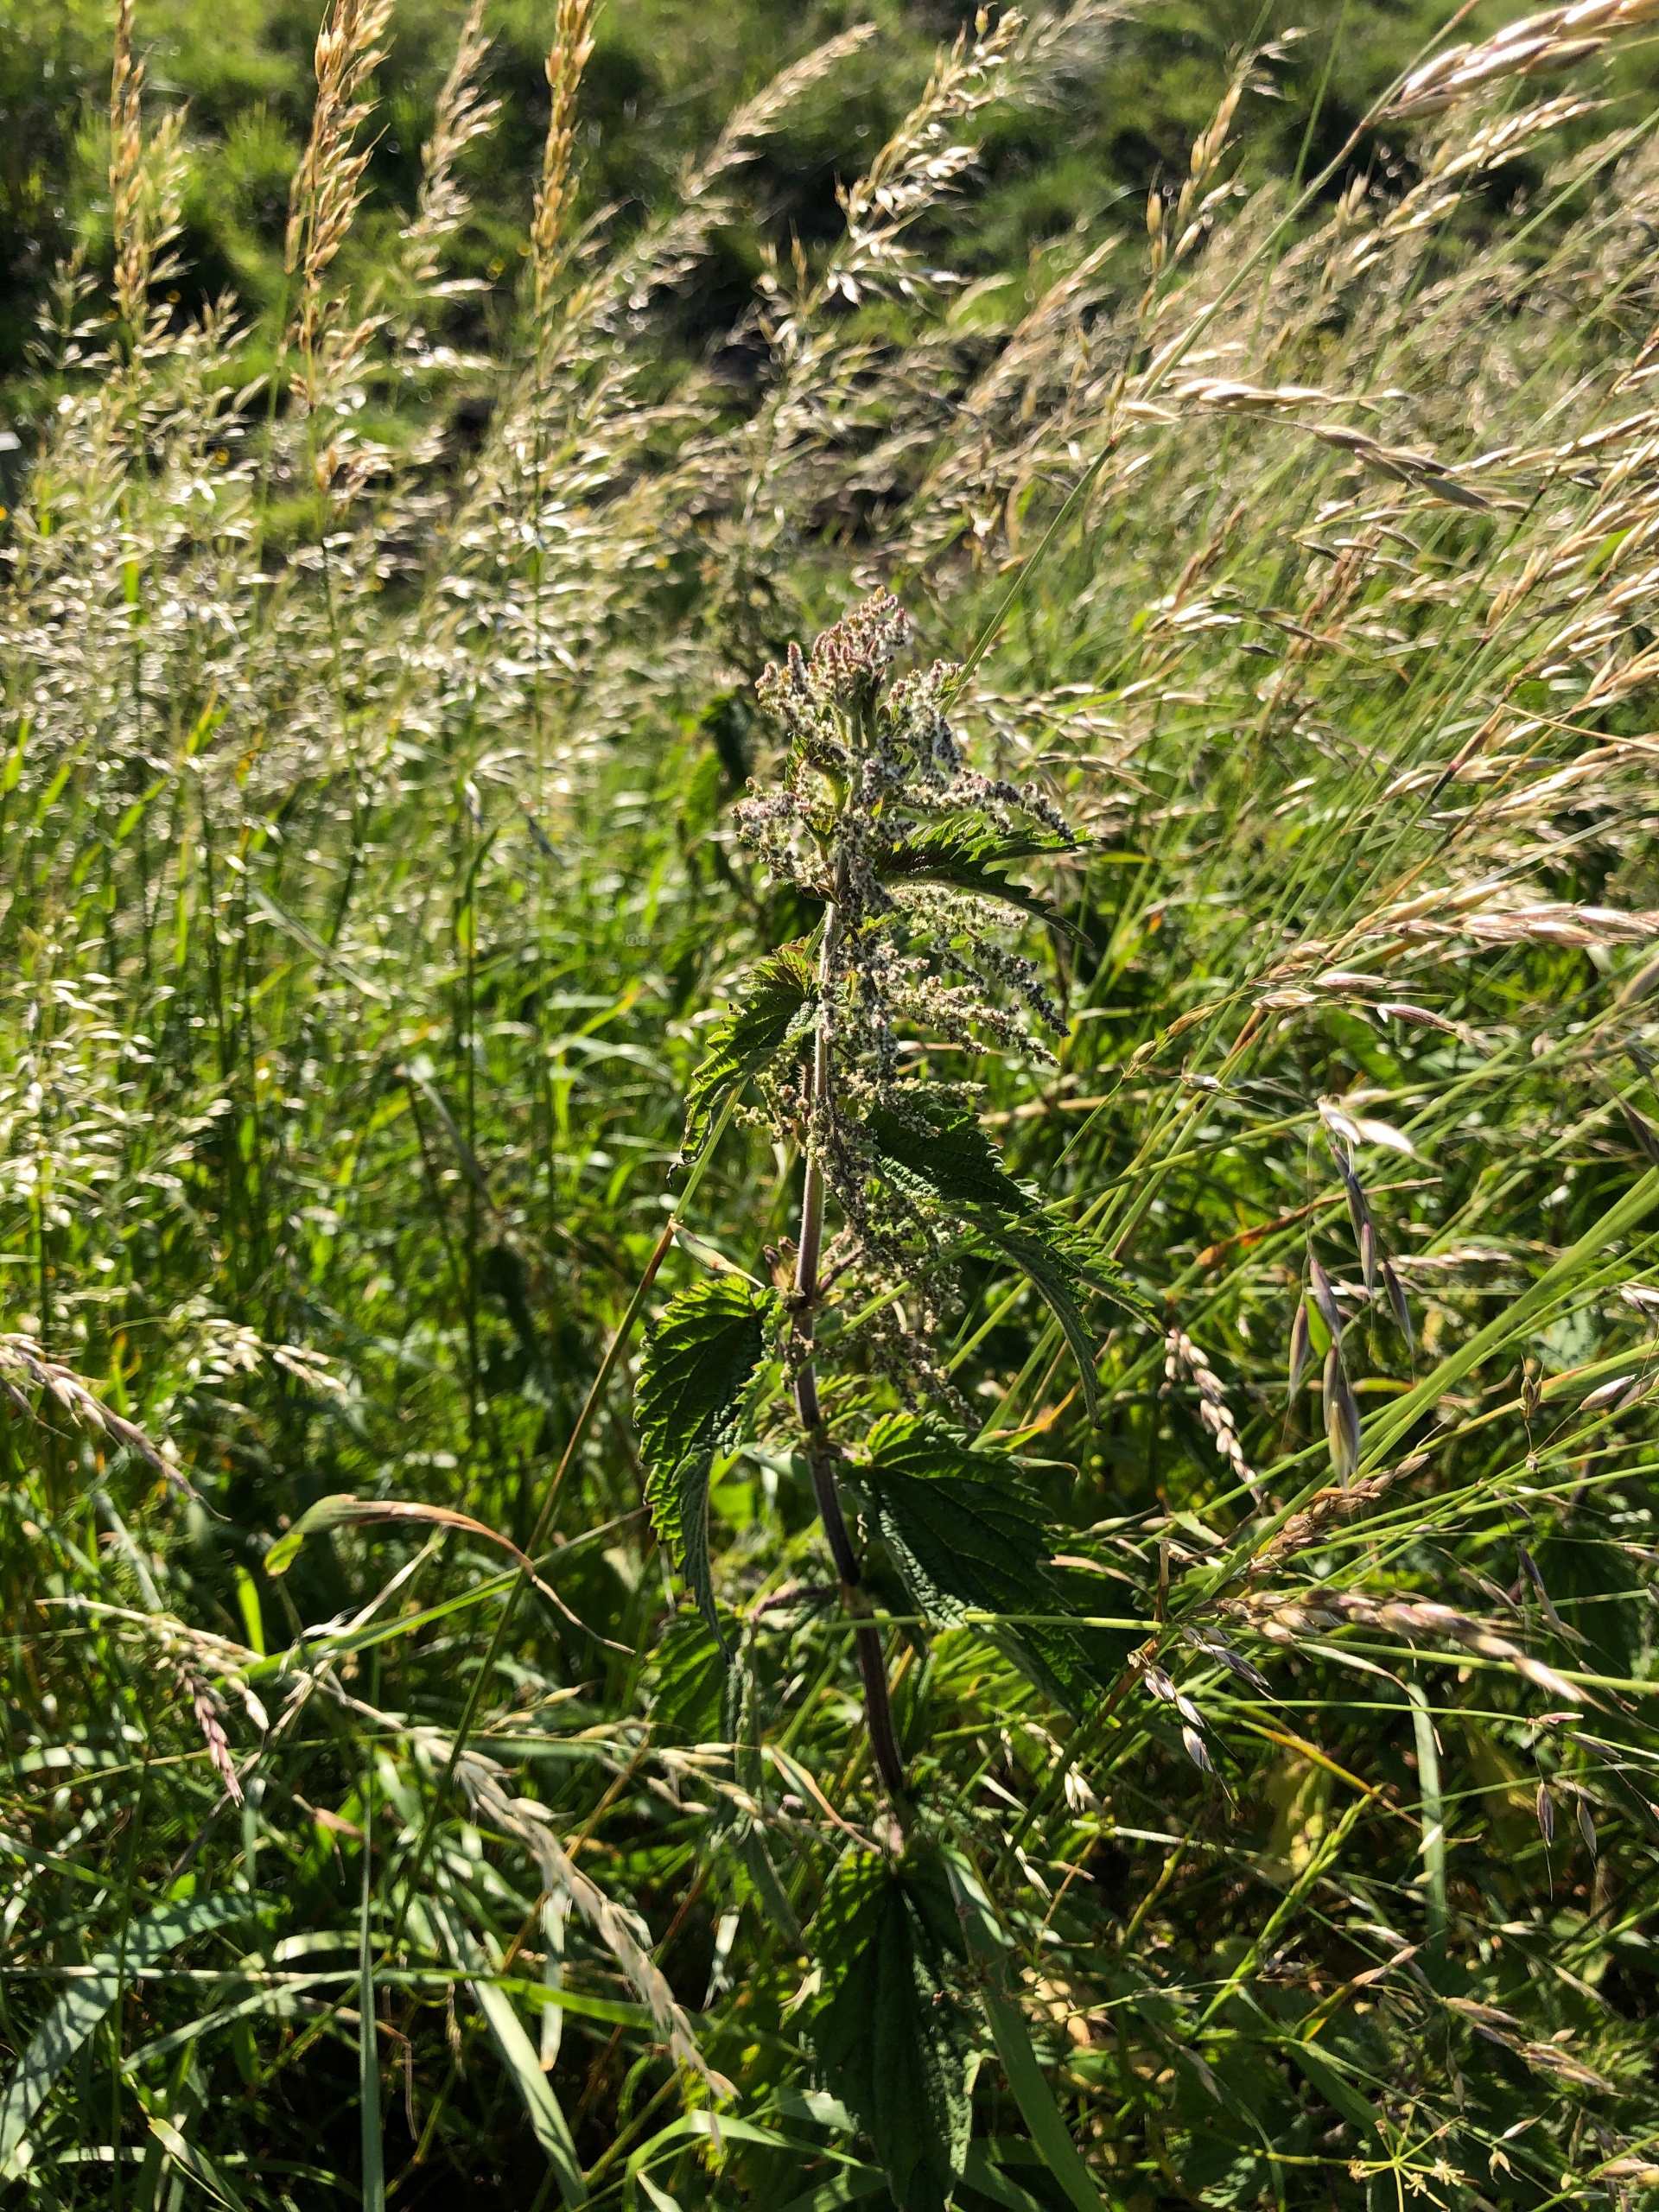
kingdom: Plantae
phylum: Tracheophyta
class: Magnoliopsida
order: Rosales
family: Urticaceae
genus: Urtica
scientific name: Urtica dioica
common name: Stor nælde
